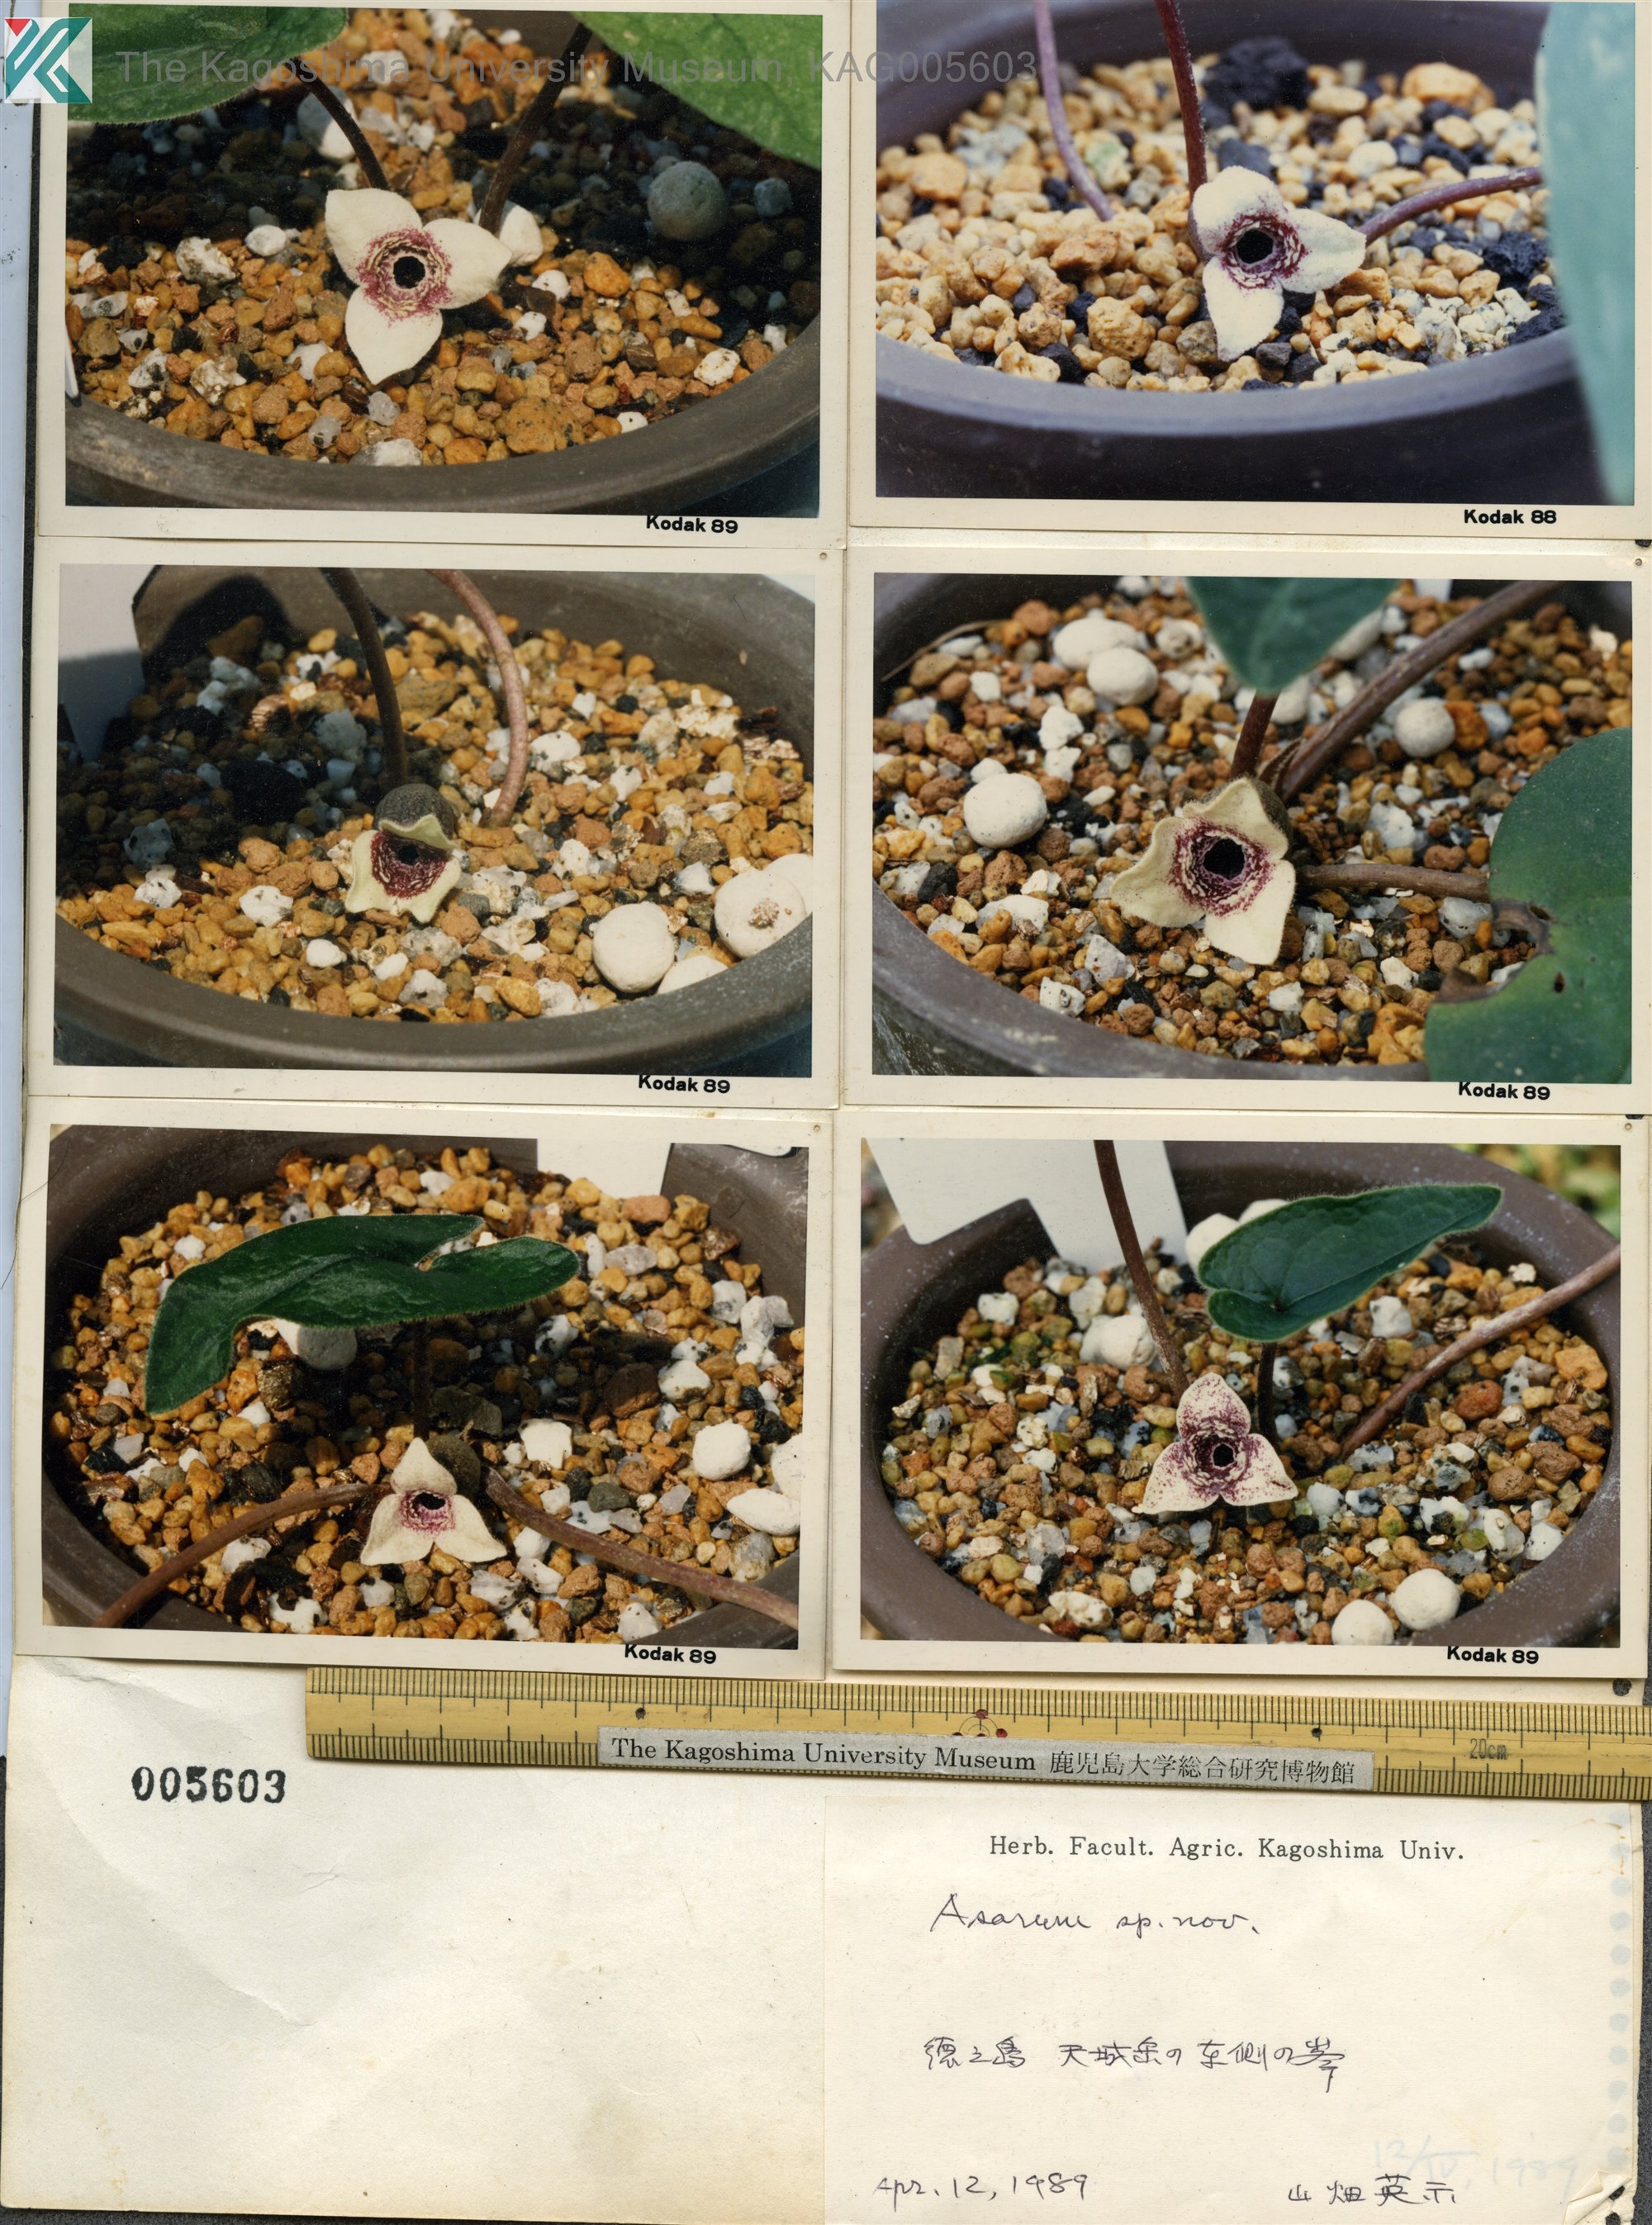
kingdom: Plantae
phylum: Tracheophyta
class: Magnoliopsida
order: Piperales
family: Aristolochiaceae
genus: Asarum
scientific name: Asarum leucosepalum
